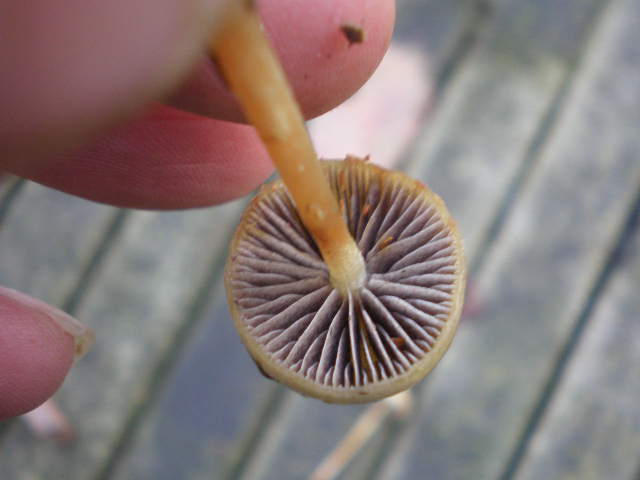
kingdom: Fungi
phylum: Basidiomycota
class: Agaricomycetes
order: Agaricales
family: Strophariaceae
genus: Protostropharia
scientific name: Protostropharia semiglobata
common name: halvkugleformet bredblad
